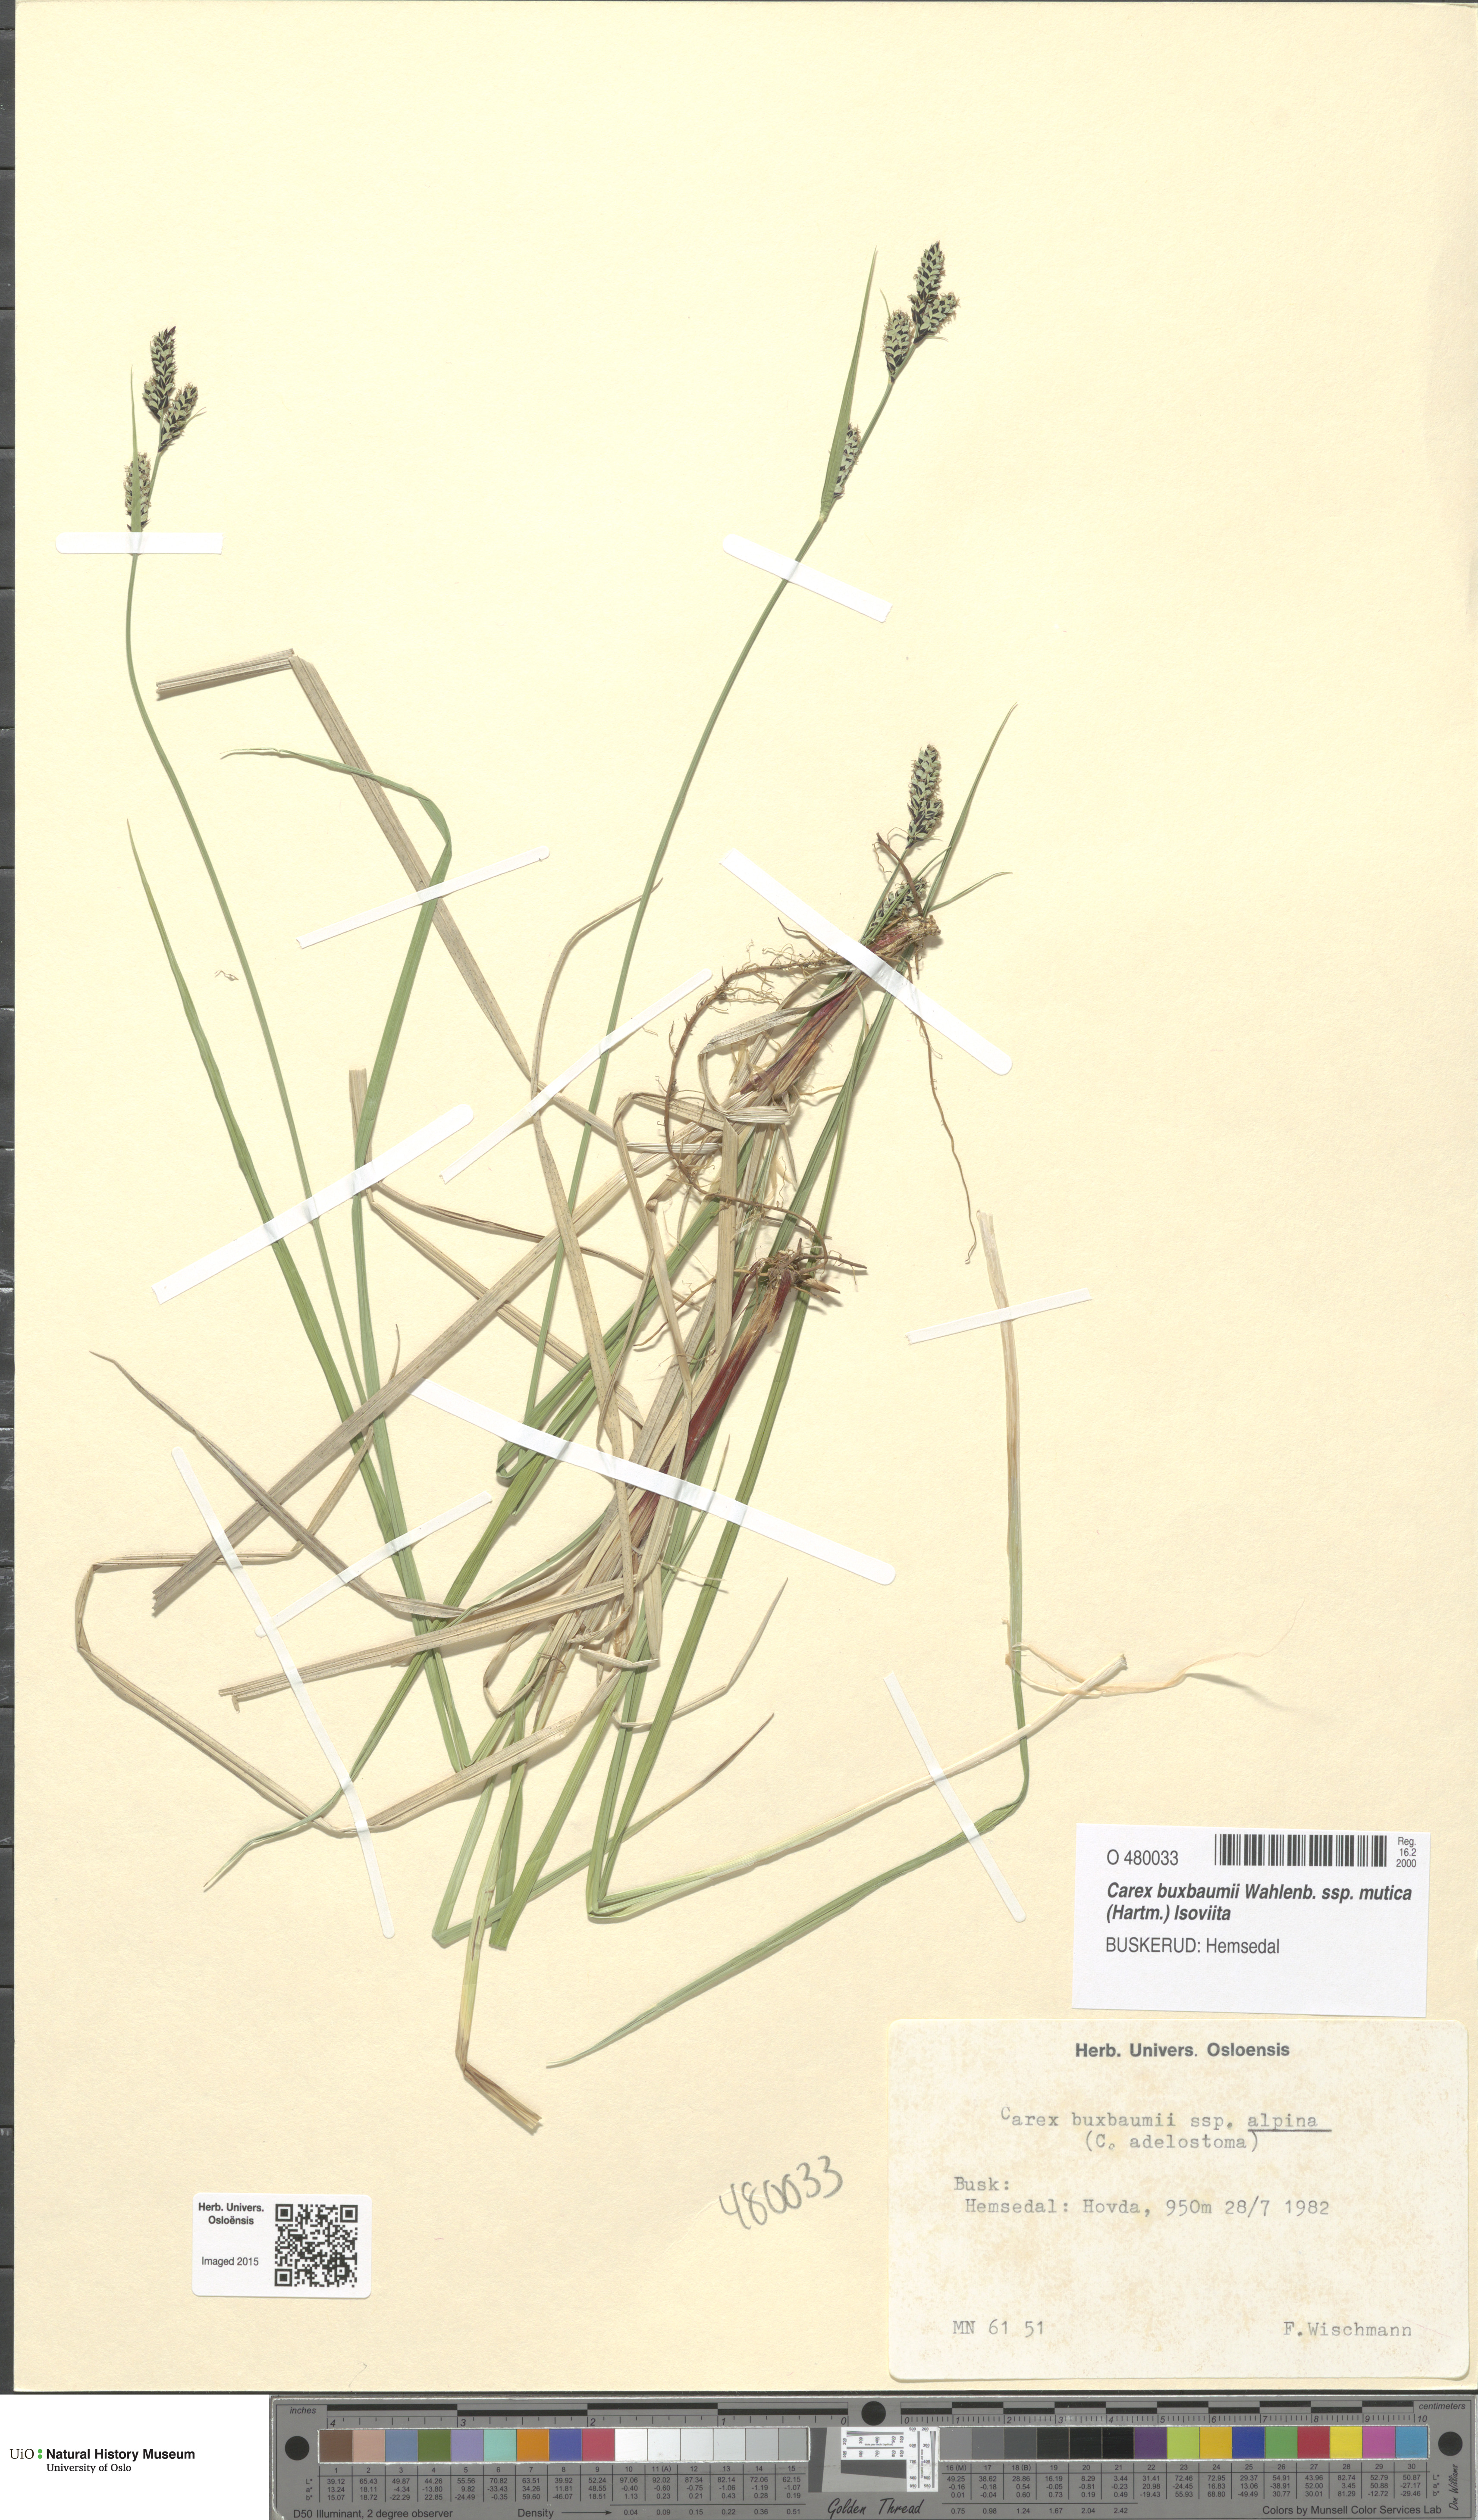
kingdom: Plantae
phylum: Tracheophyta
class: Liliopsida
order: Poales
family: Cyperaceae
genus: Carex
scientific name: Carex adelostoma
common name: Circumpolar sedge
